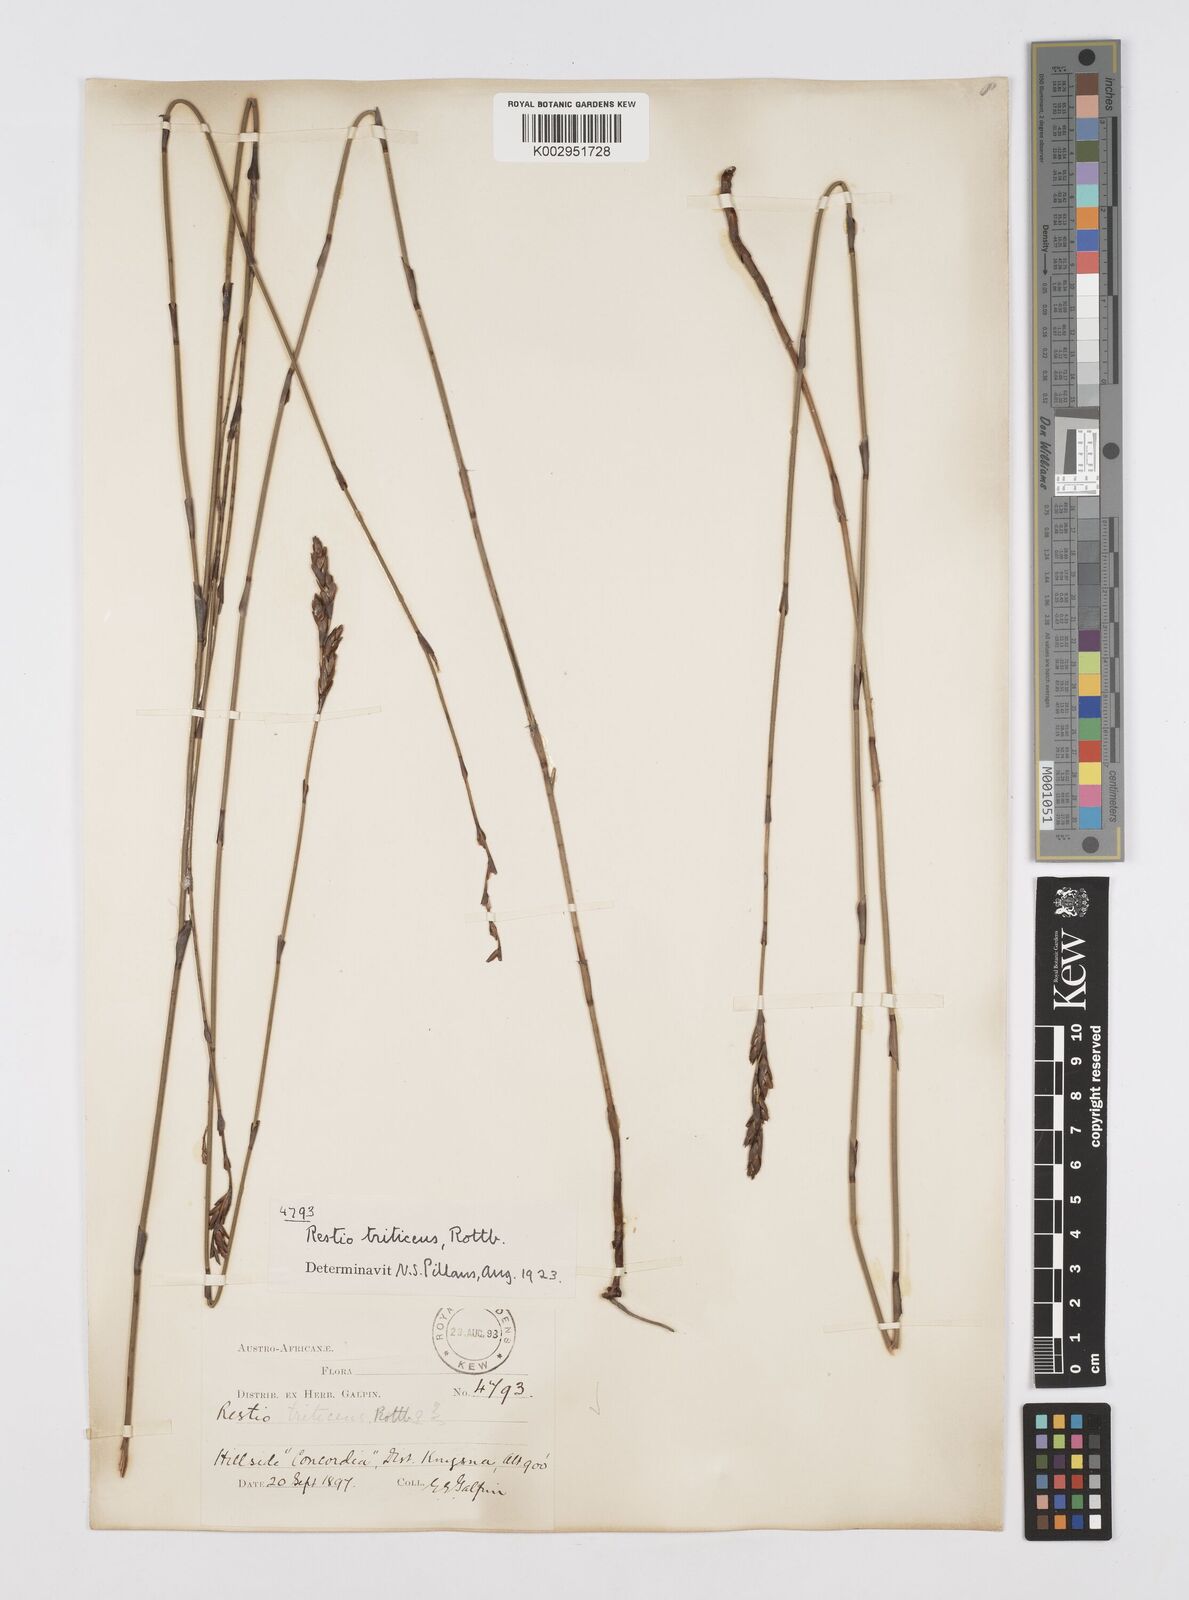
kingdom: Plantae
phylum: Tracheophyta
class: Liliopsida
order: Poales
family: Restionaceae
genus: Restio
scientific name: Restio triticeus
